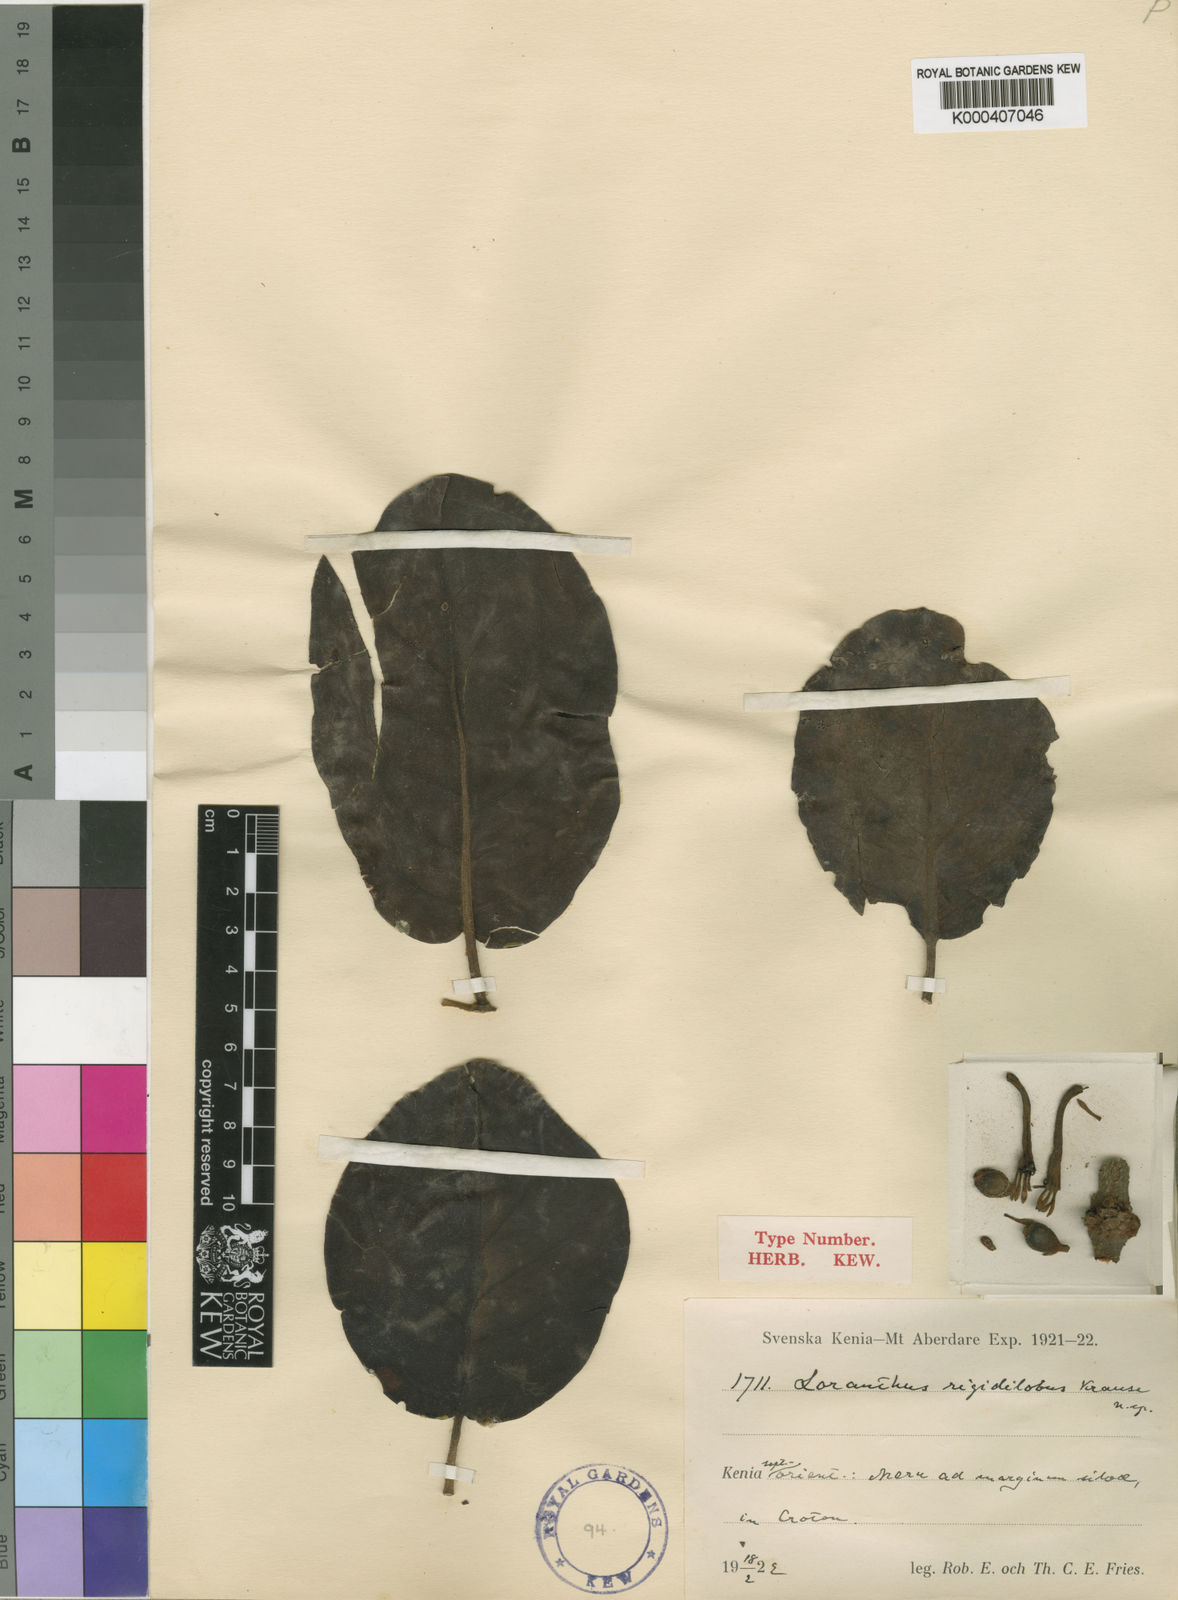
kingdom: Plantae
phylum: Tracheophyta
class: Magnoliopsida
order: Santalales
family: Loranthaceae
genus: Phragmanthera
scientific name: Phragmanthera usuiensis
